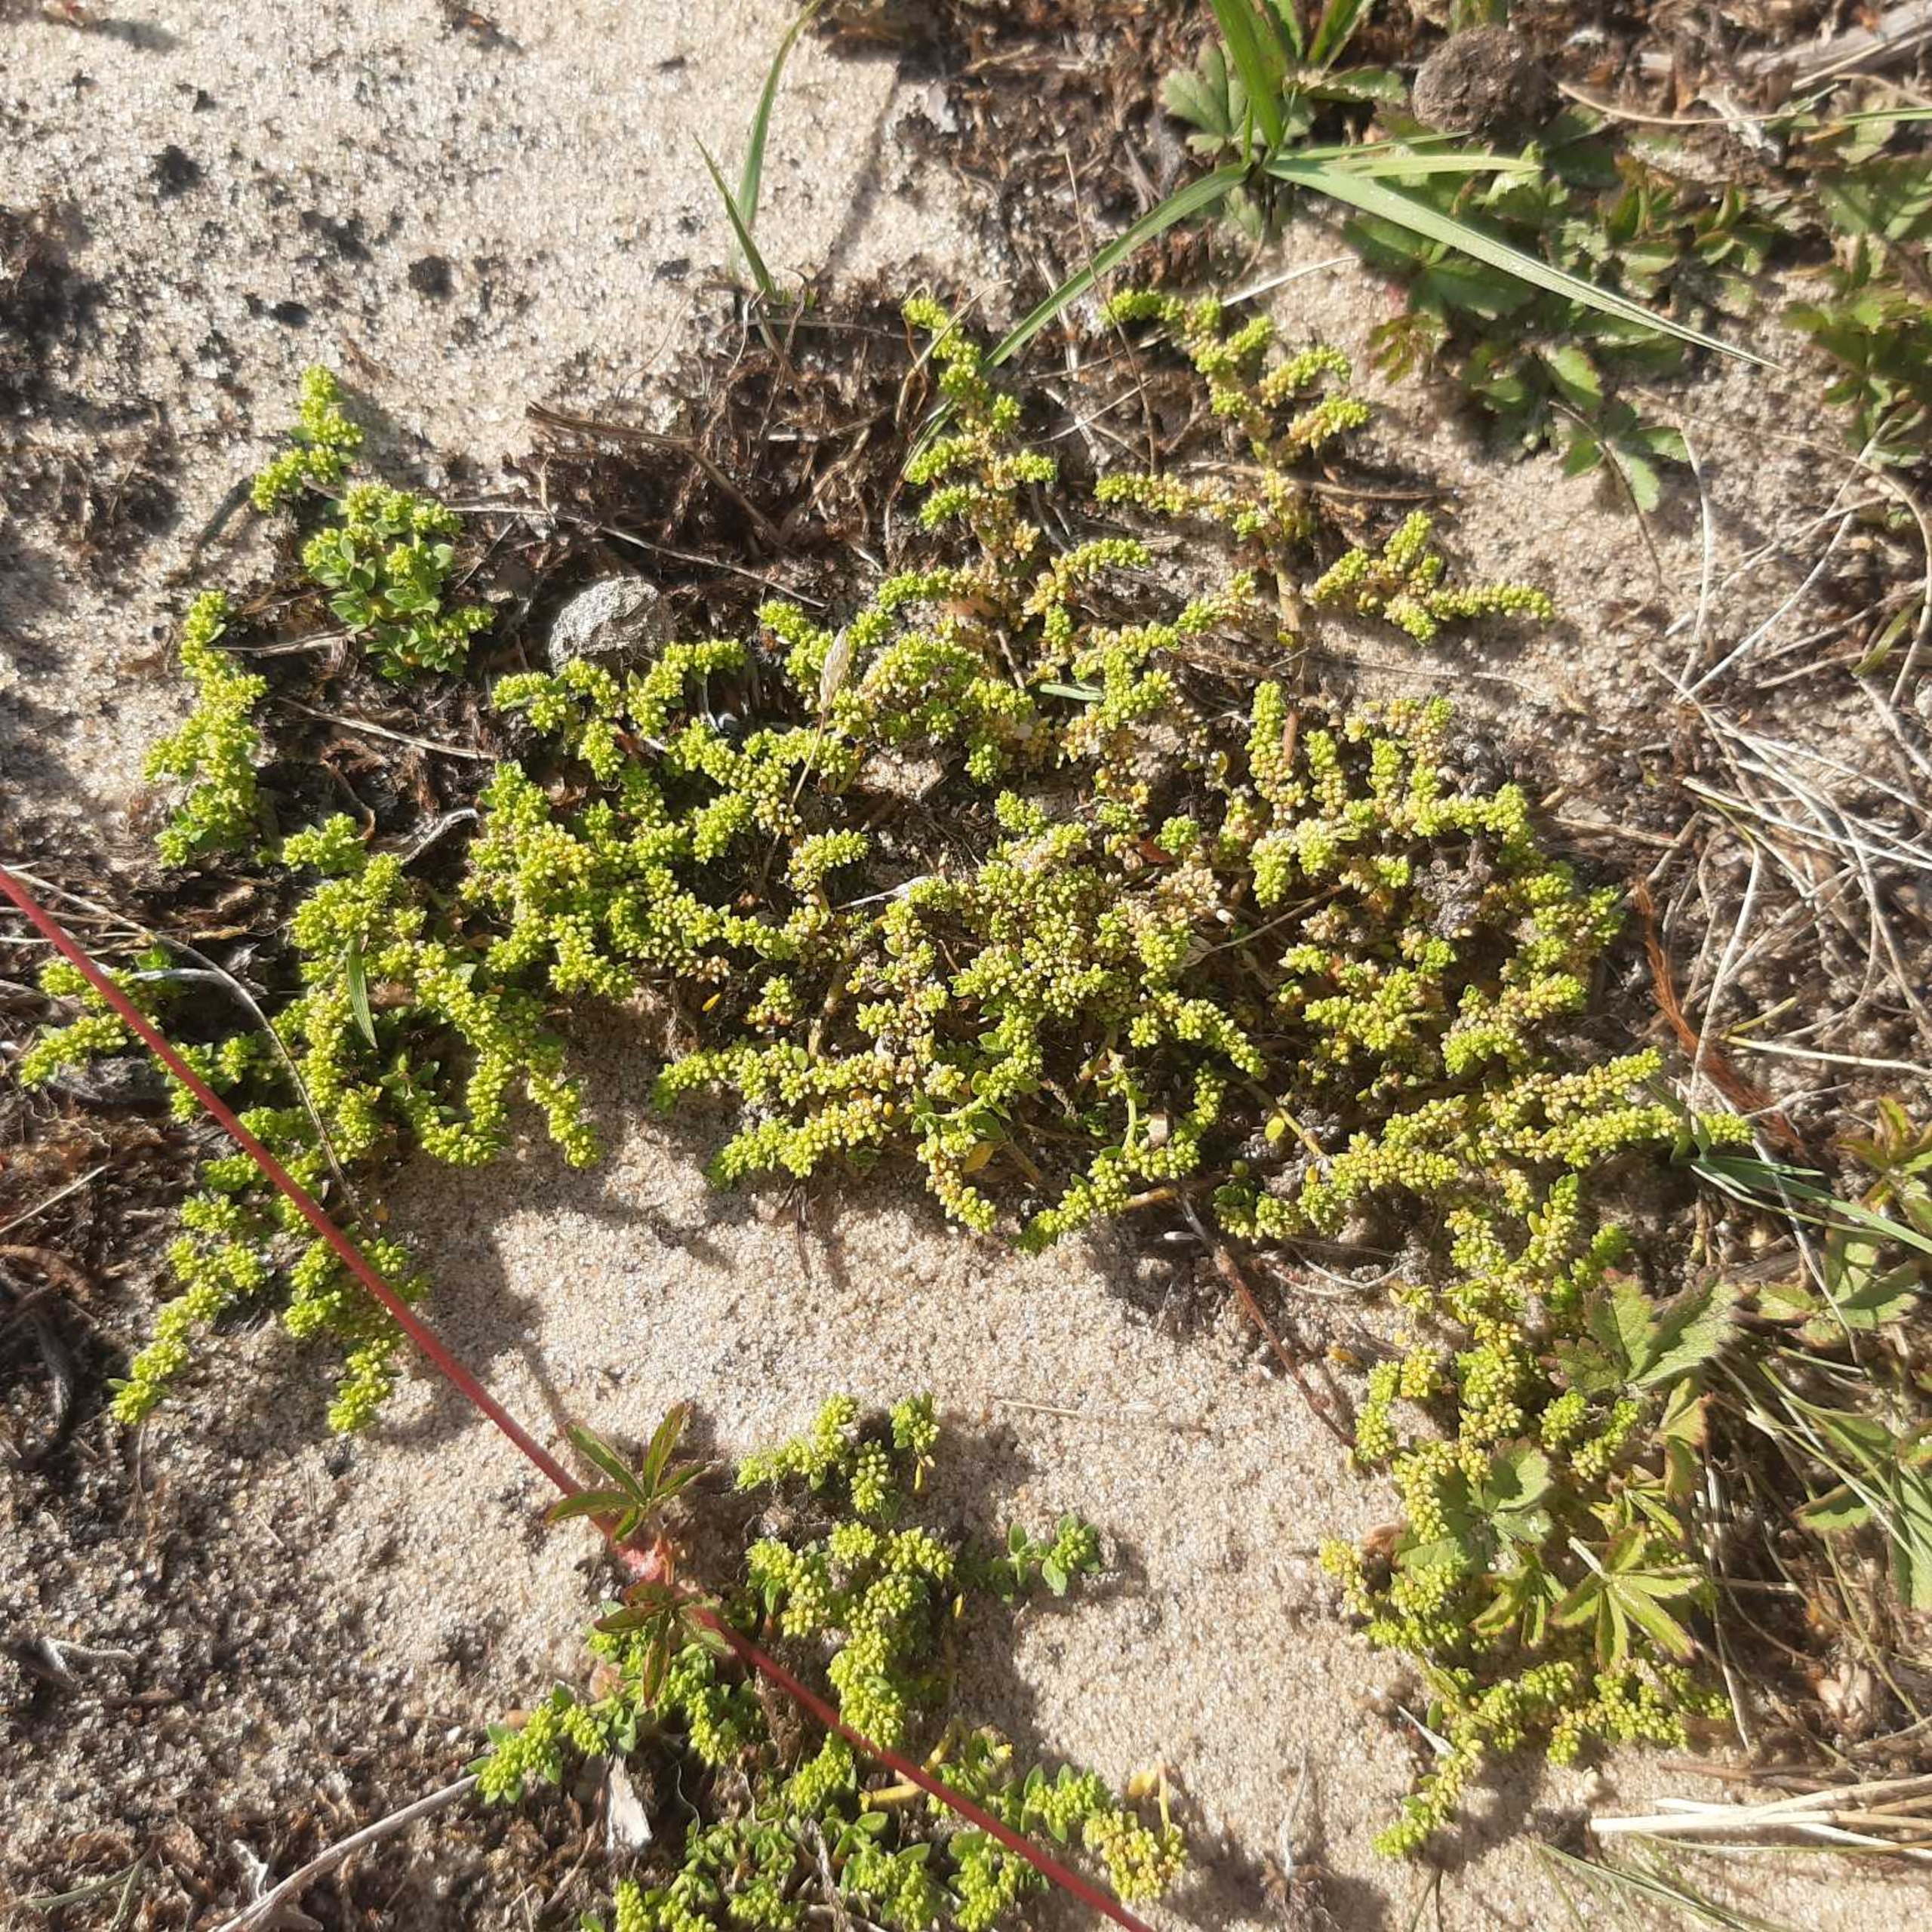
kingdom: Plantae
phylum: Tracheophyta
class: Magnoliopsida
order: Caryophyllales
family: Caryophyllaceae
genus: Herniaria
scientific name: Herniaria glabra
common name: Brudurt
